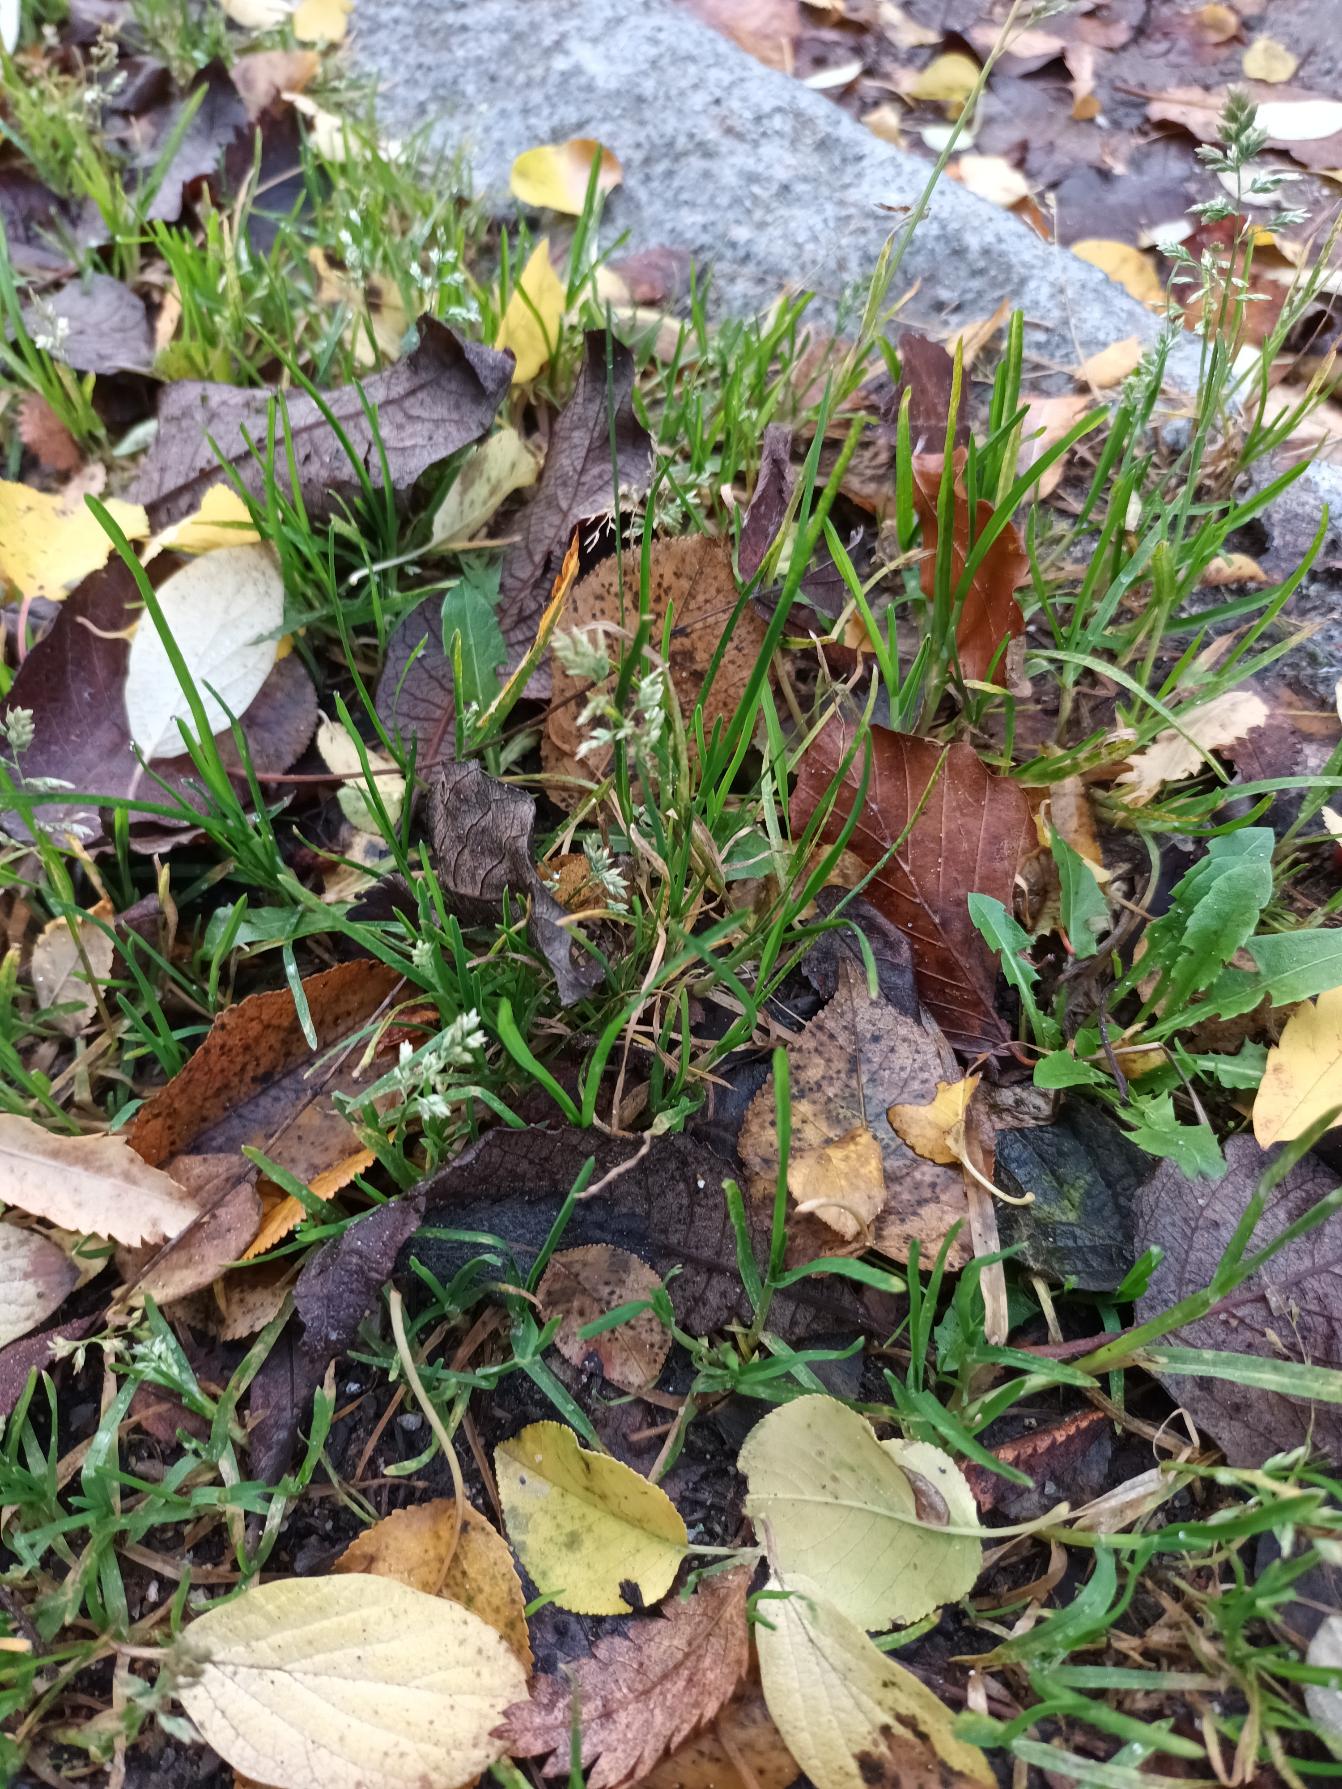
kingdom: Plantae
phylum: Tracheophyta
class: Liliopsida
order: Poales
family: Poaceae
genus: Poa
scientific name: Poa annua
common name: Enårig rapgræs
